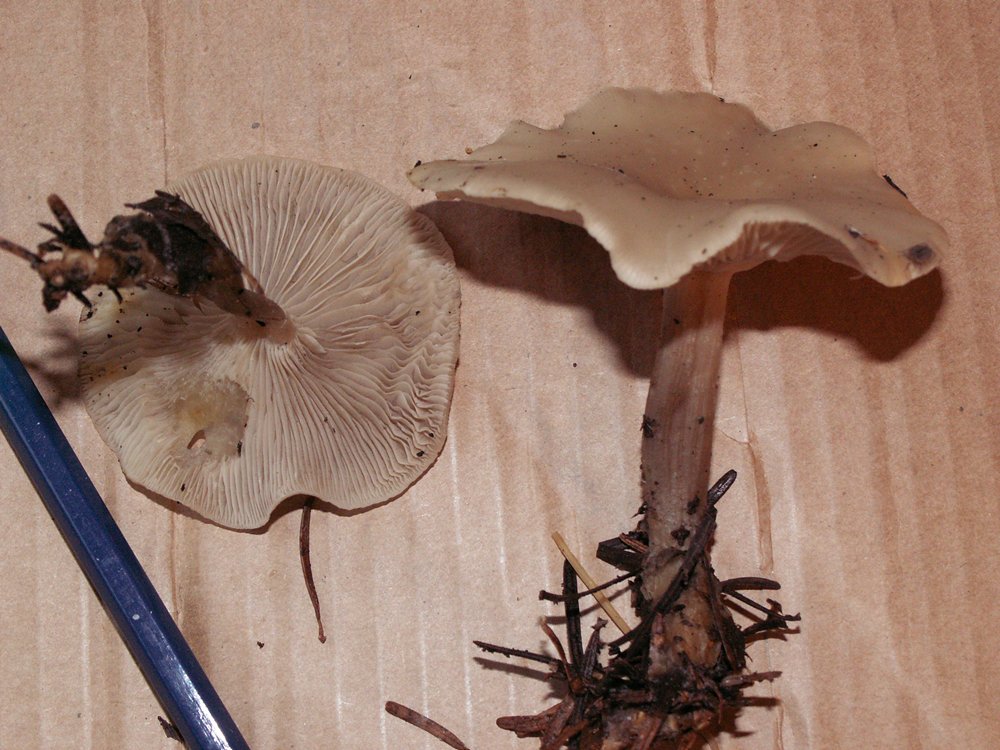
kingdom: Fungi
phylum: Basidiomycota
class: Agaricomycetes
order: Agaricales
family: Tricholomataceae
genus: Clitocybe
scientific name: Clitocybe metachroa
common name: grå tragthat
